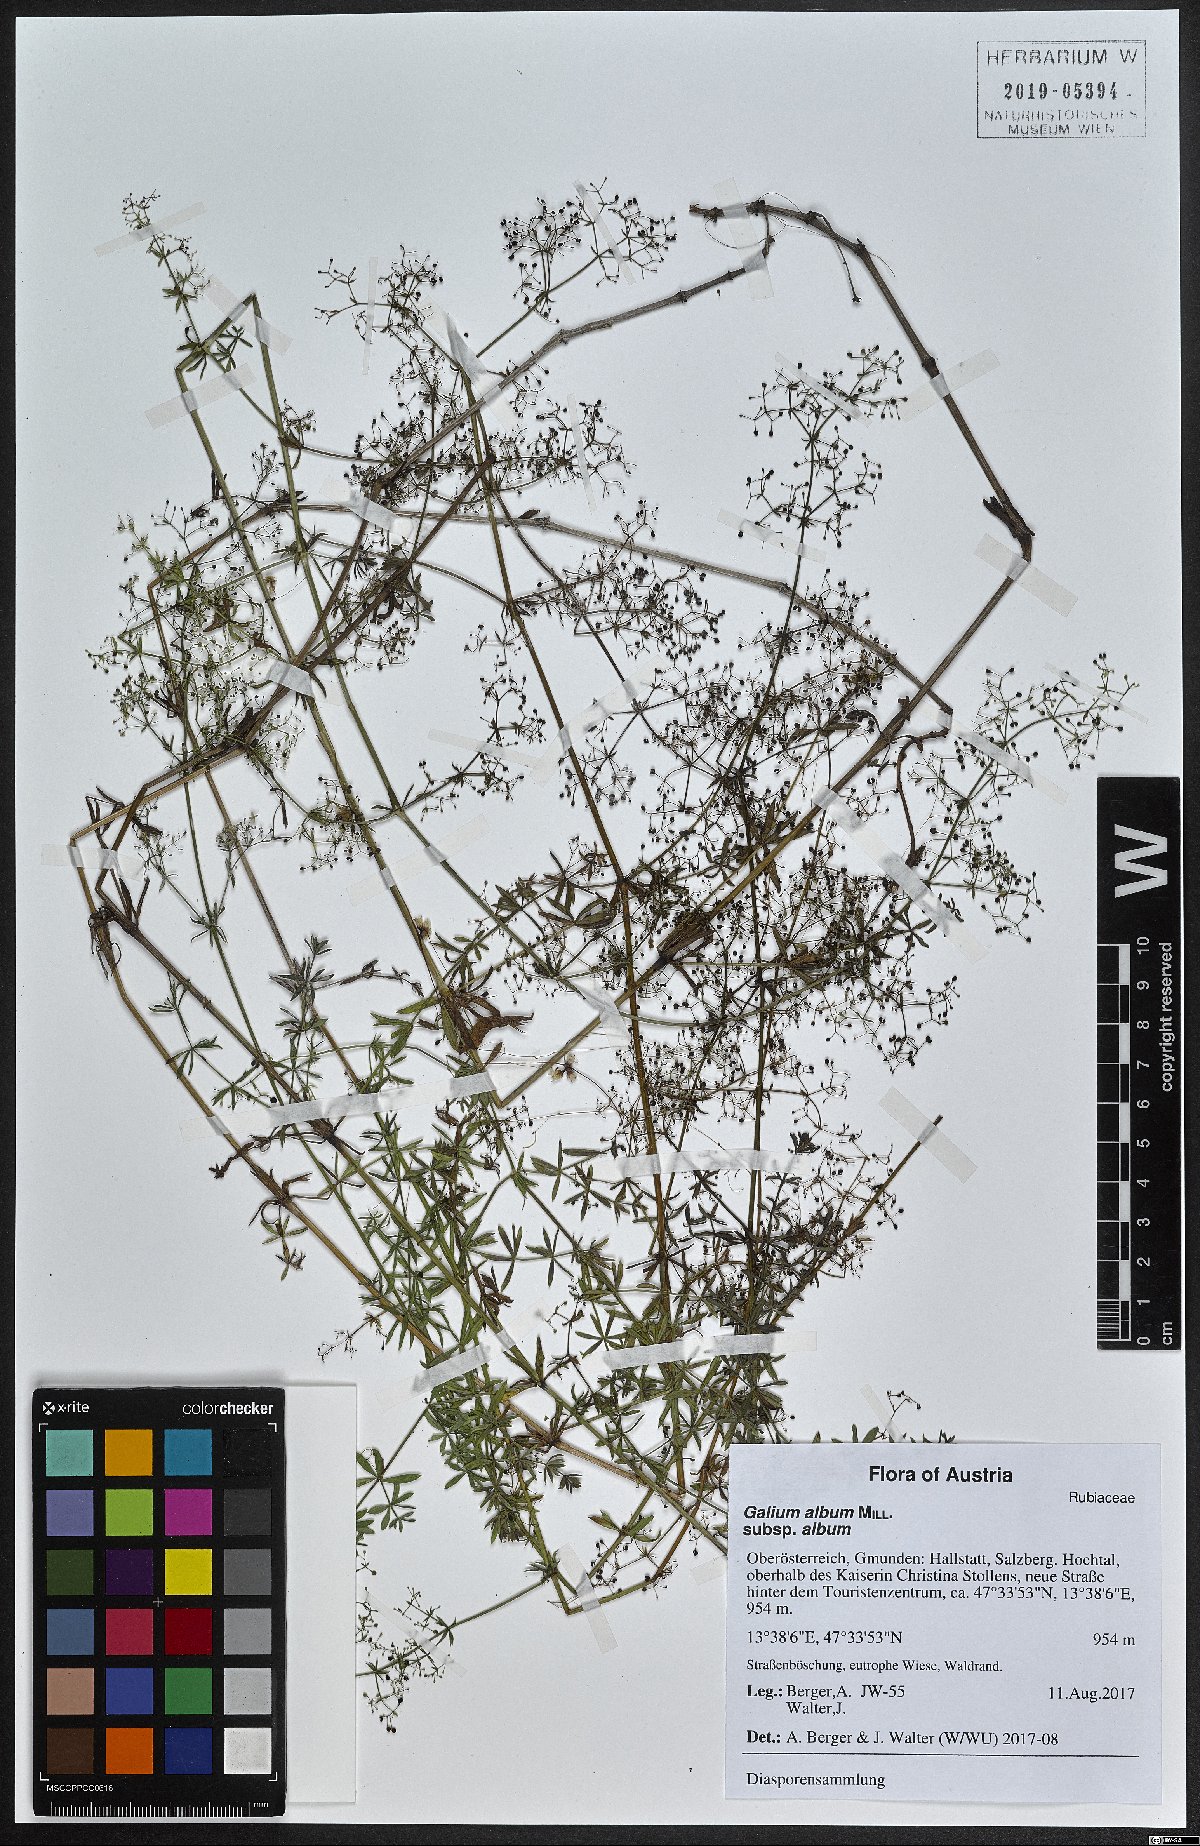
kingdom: Plantae
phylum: Tracheophyta
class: Magnoliopsida
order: Gentianales
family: Rubiaceae
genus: Galium
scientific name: Galium album
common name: White bedstraw
